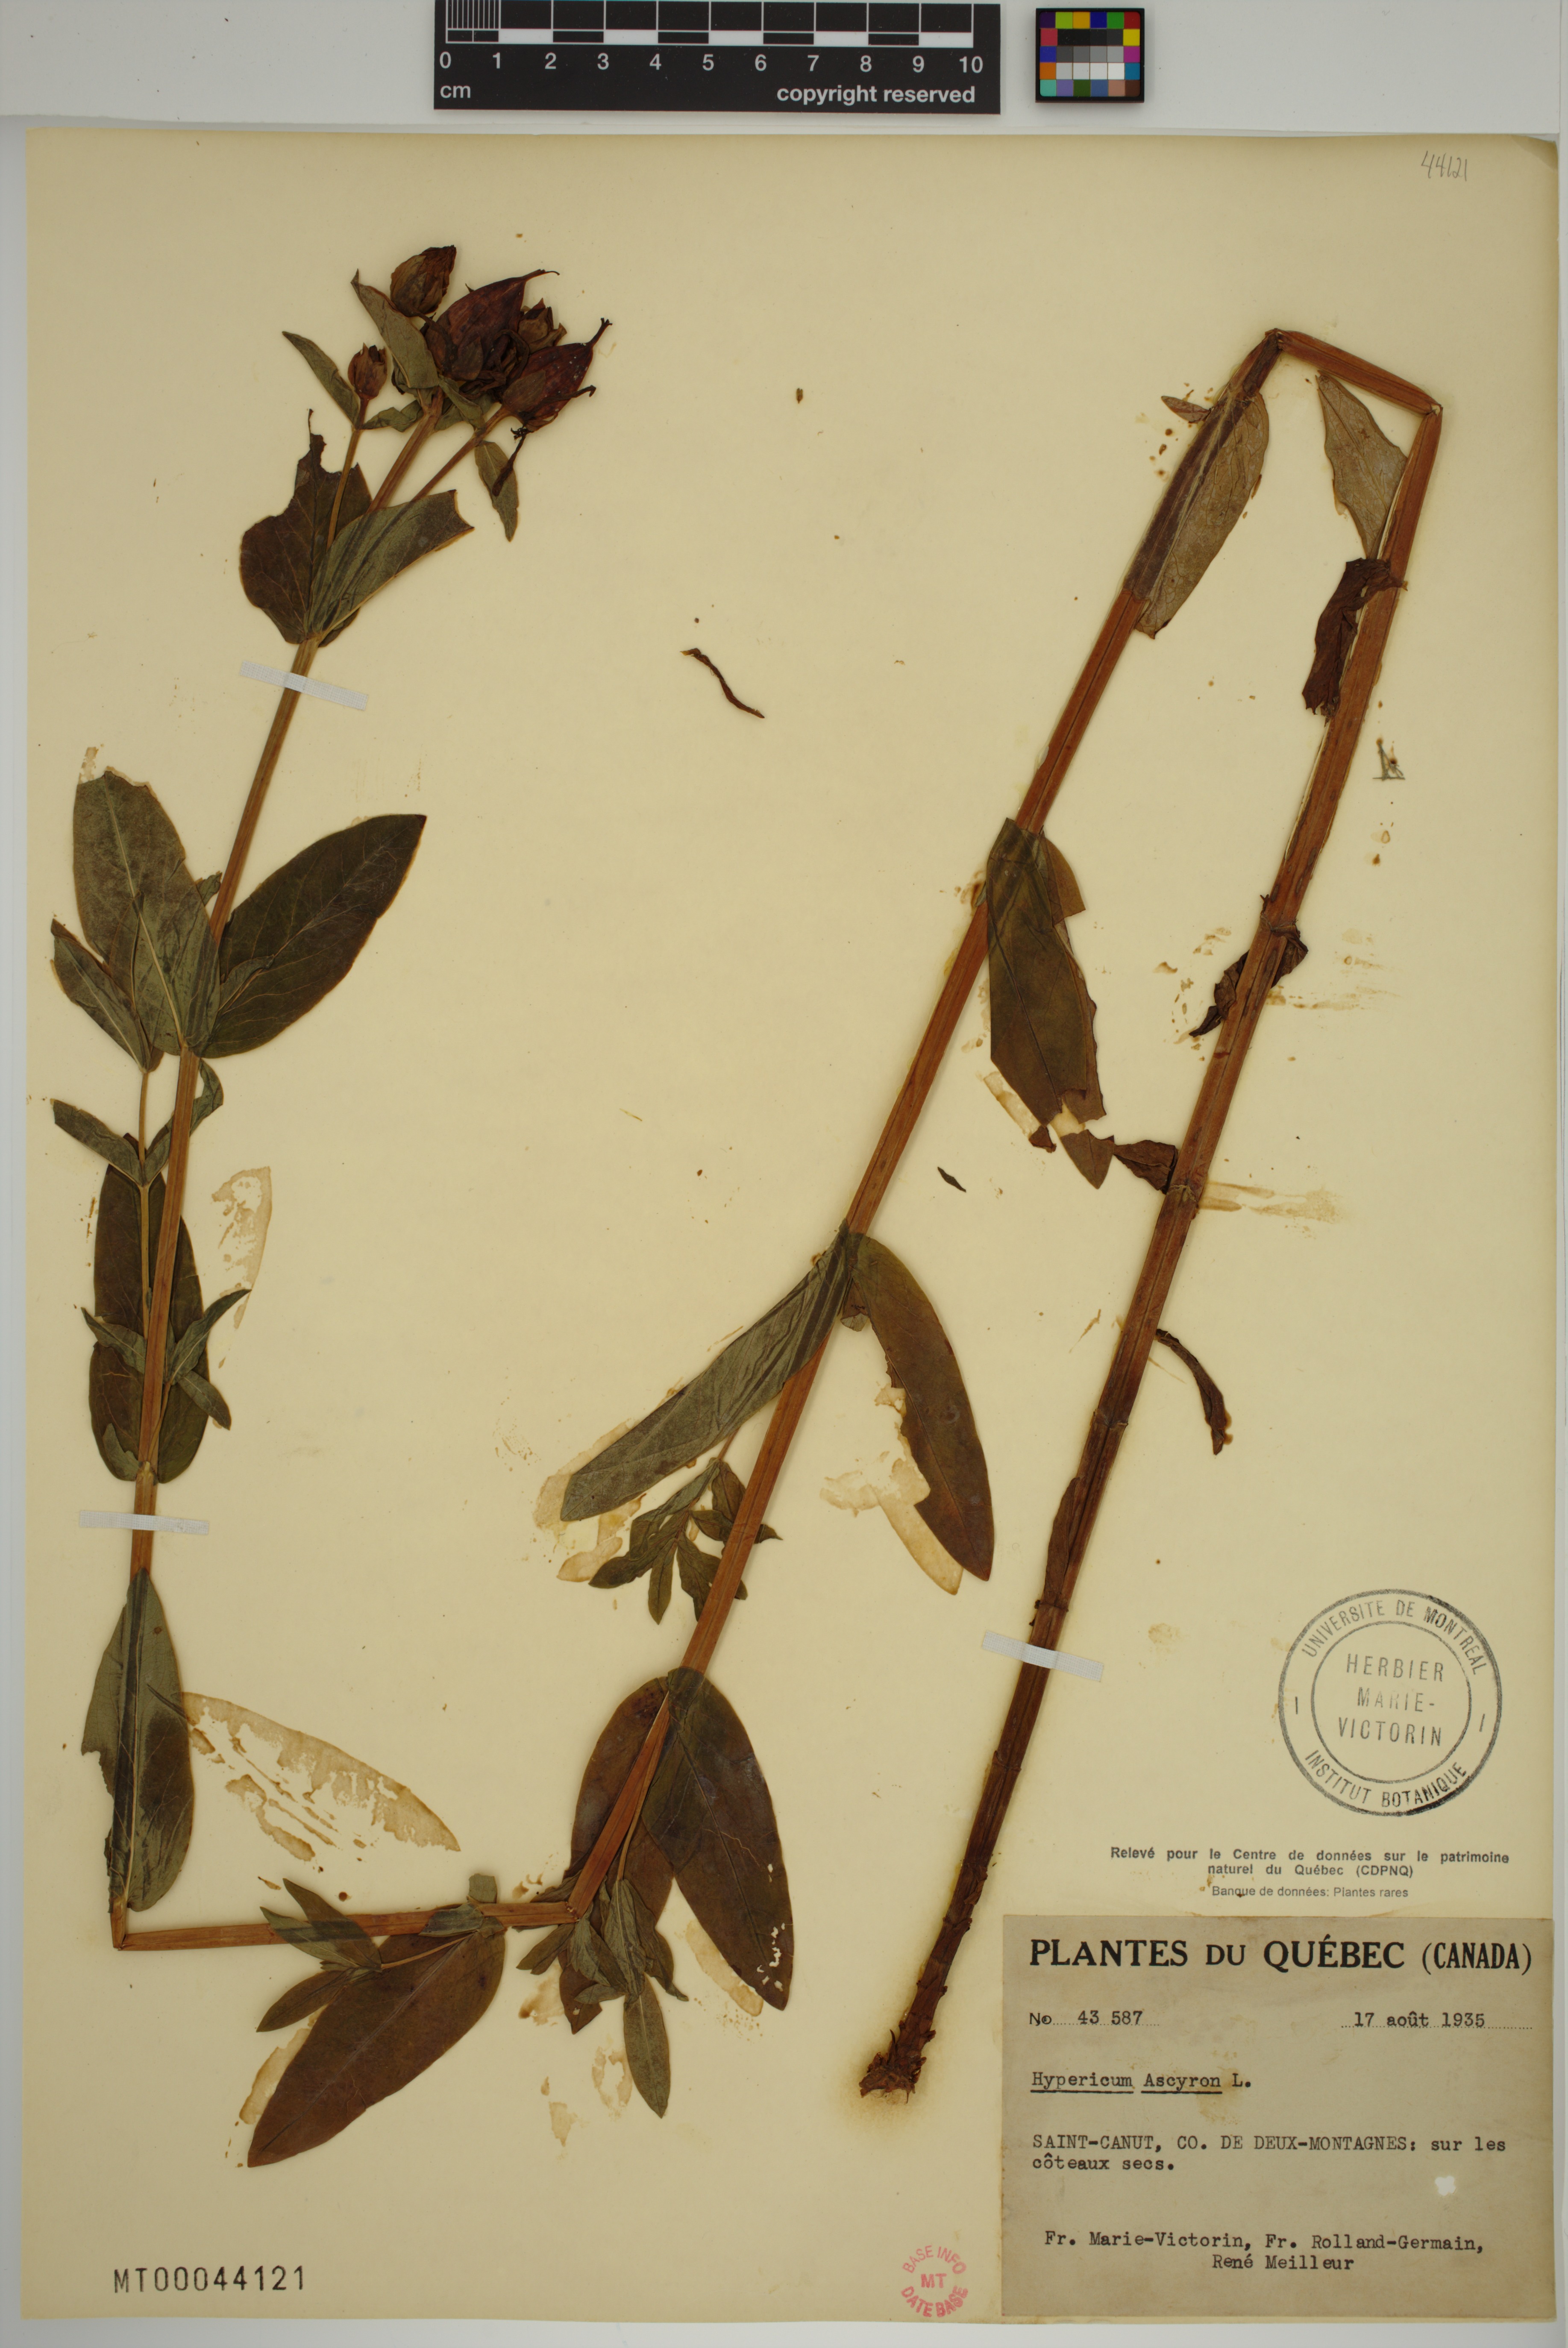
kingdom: Plantae
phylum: Tracheophyta
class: Magnoliopsida
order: Malpighiales
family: Hypericaceae
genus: Hypericum
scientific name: Hypericum ascyron
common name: Giant st. john's-wort
